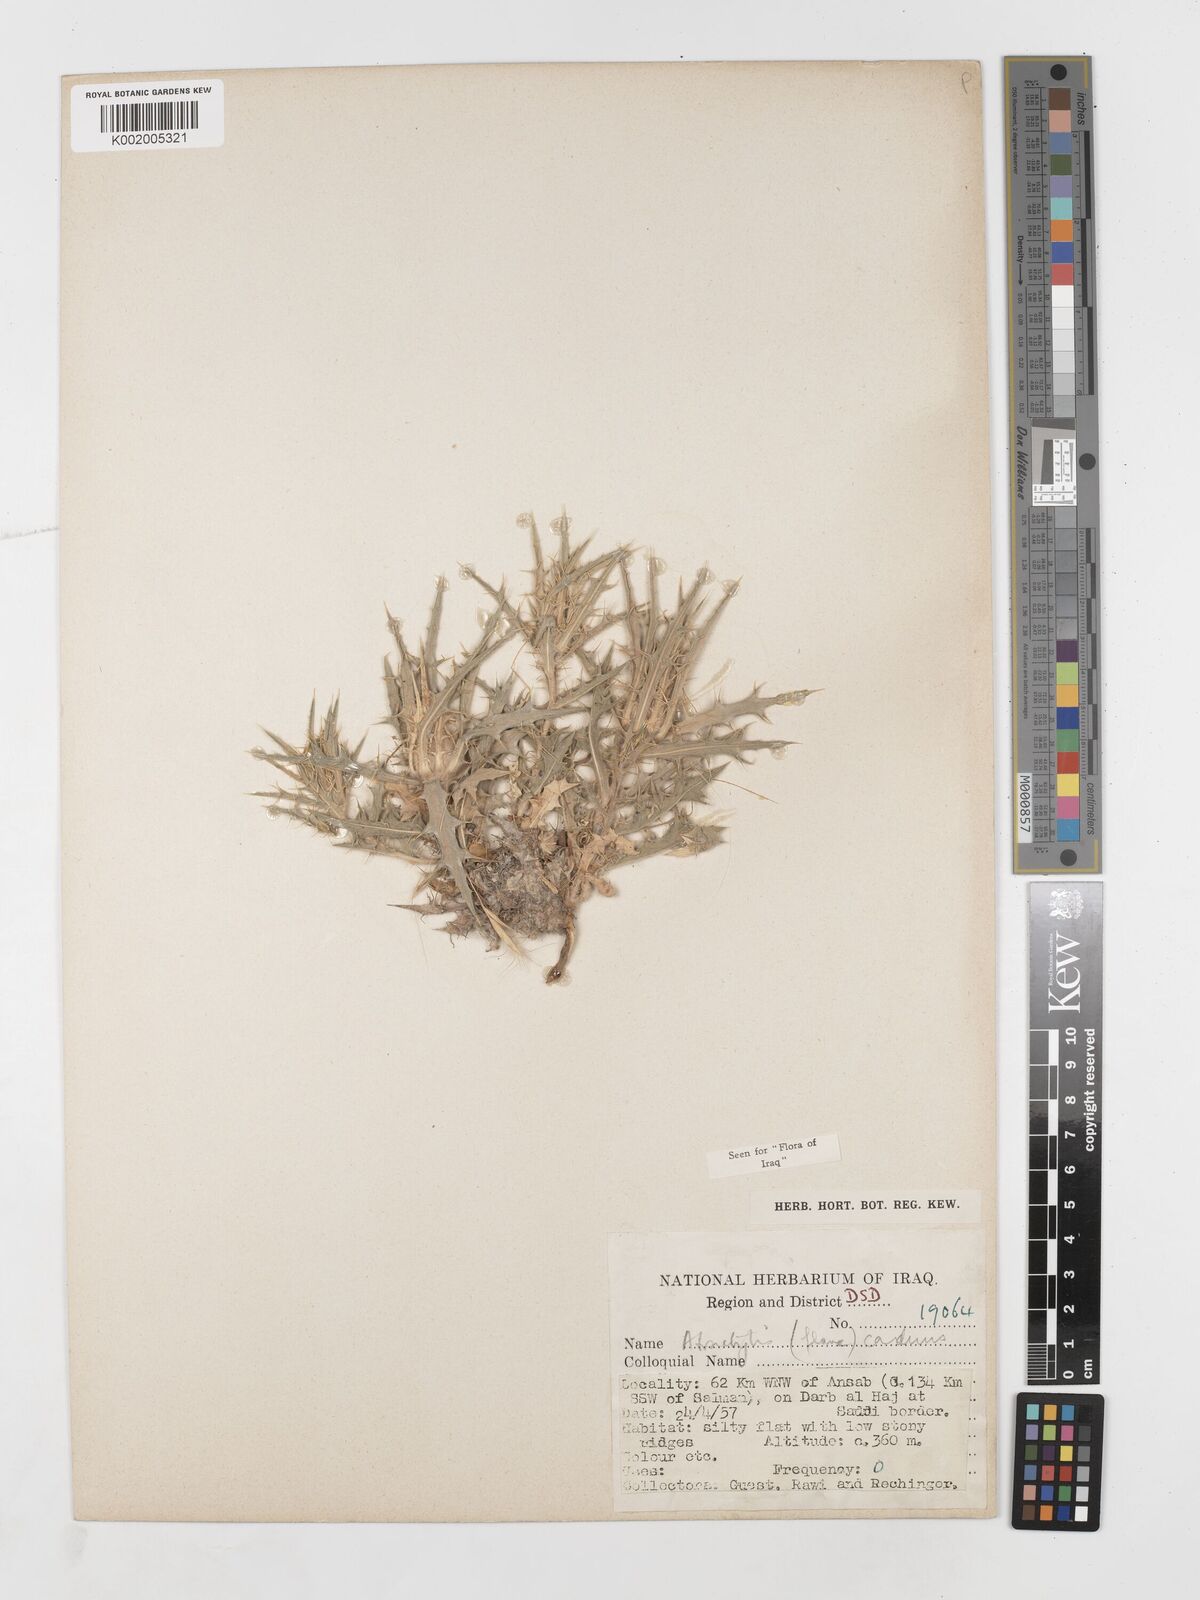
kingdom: Plantae
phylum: Tracheophyta
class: Magnoliopsida
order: Asterales
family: Asteraceae
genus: Atractylis
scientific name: Atractylis carduus
